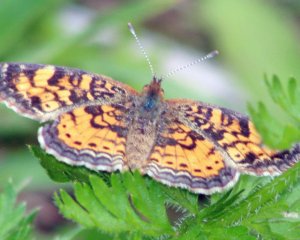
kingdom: Animalia
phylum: Arthropoda
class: Insecta
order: Lepidoptera
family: Nymphalidae
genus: Phyciodes
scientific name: Phyciodes tharos
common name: Pearl Crescent
